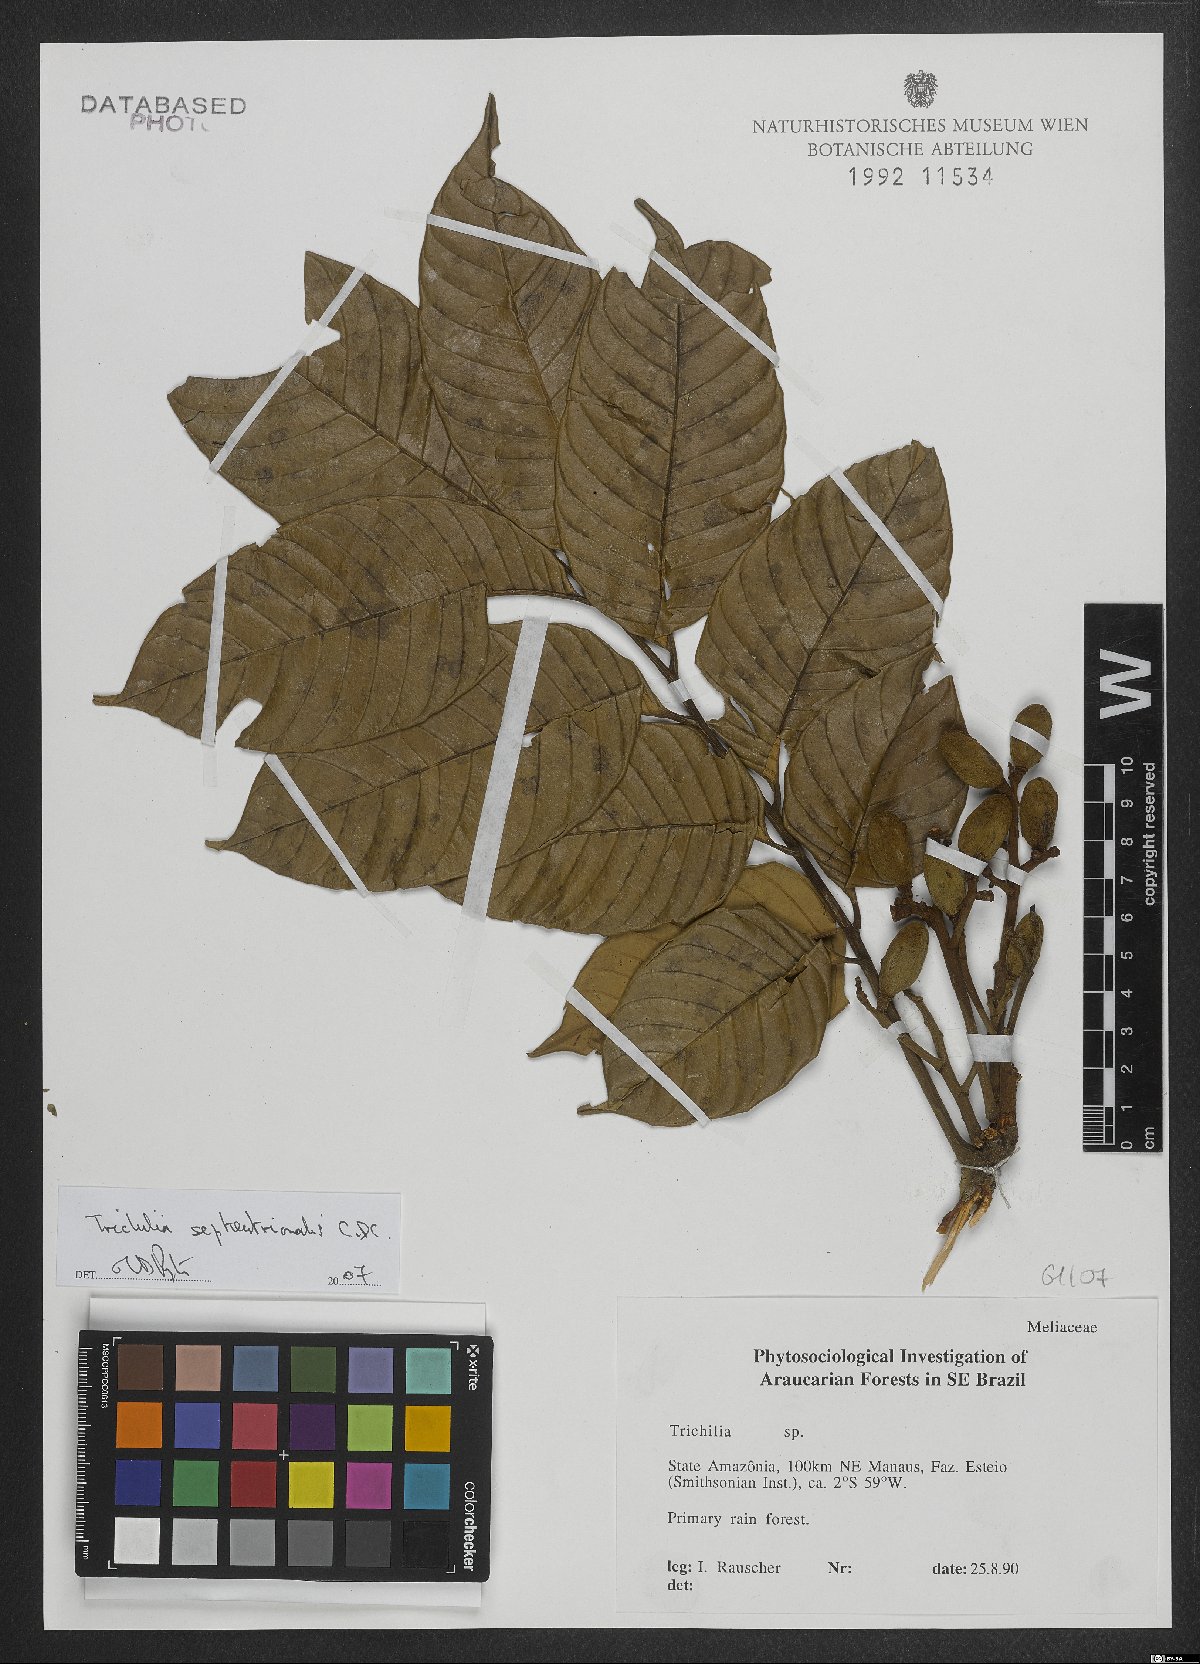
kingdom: Plantae
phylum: Tracheophyta
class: Magnoliopsida
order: Sapindales
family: Meliaceae
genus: Trichilia
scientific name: Trichilia septentrionalis
